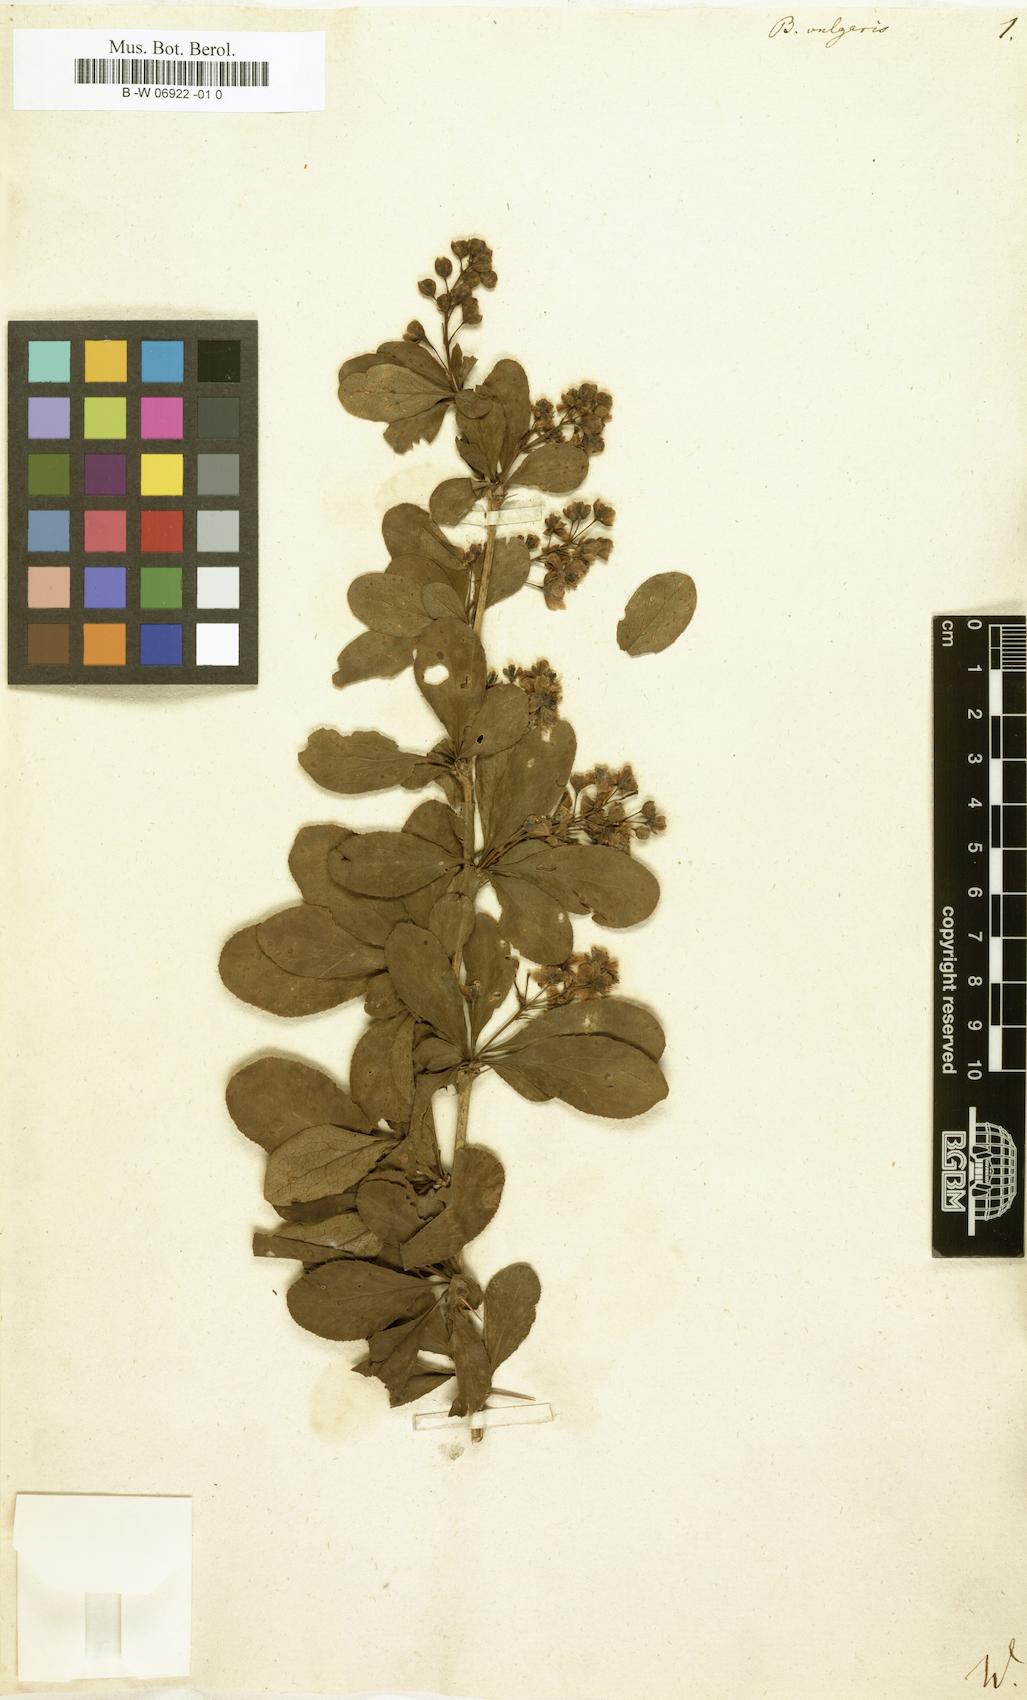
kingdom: Plantae
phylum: Tracheophyta
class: Magnoliopsida
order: Ranunculales
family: Berberidaceae
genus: Berberis
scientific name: Berberis vulgaris
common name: Barberry
